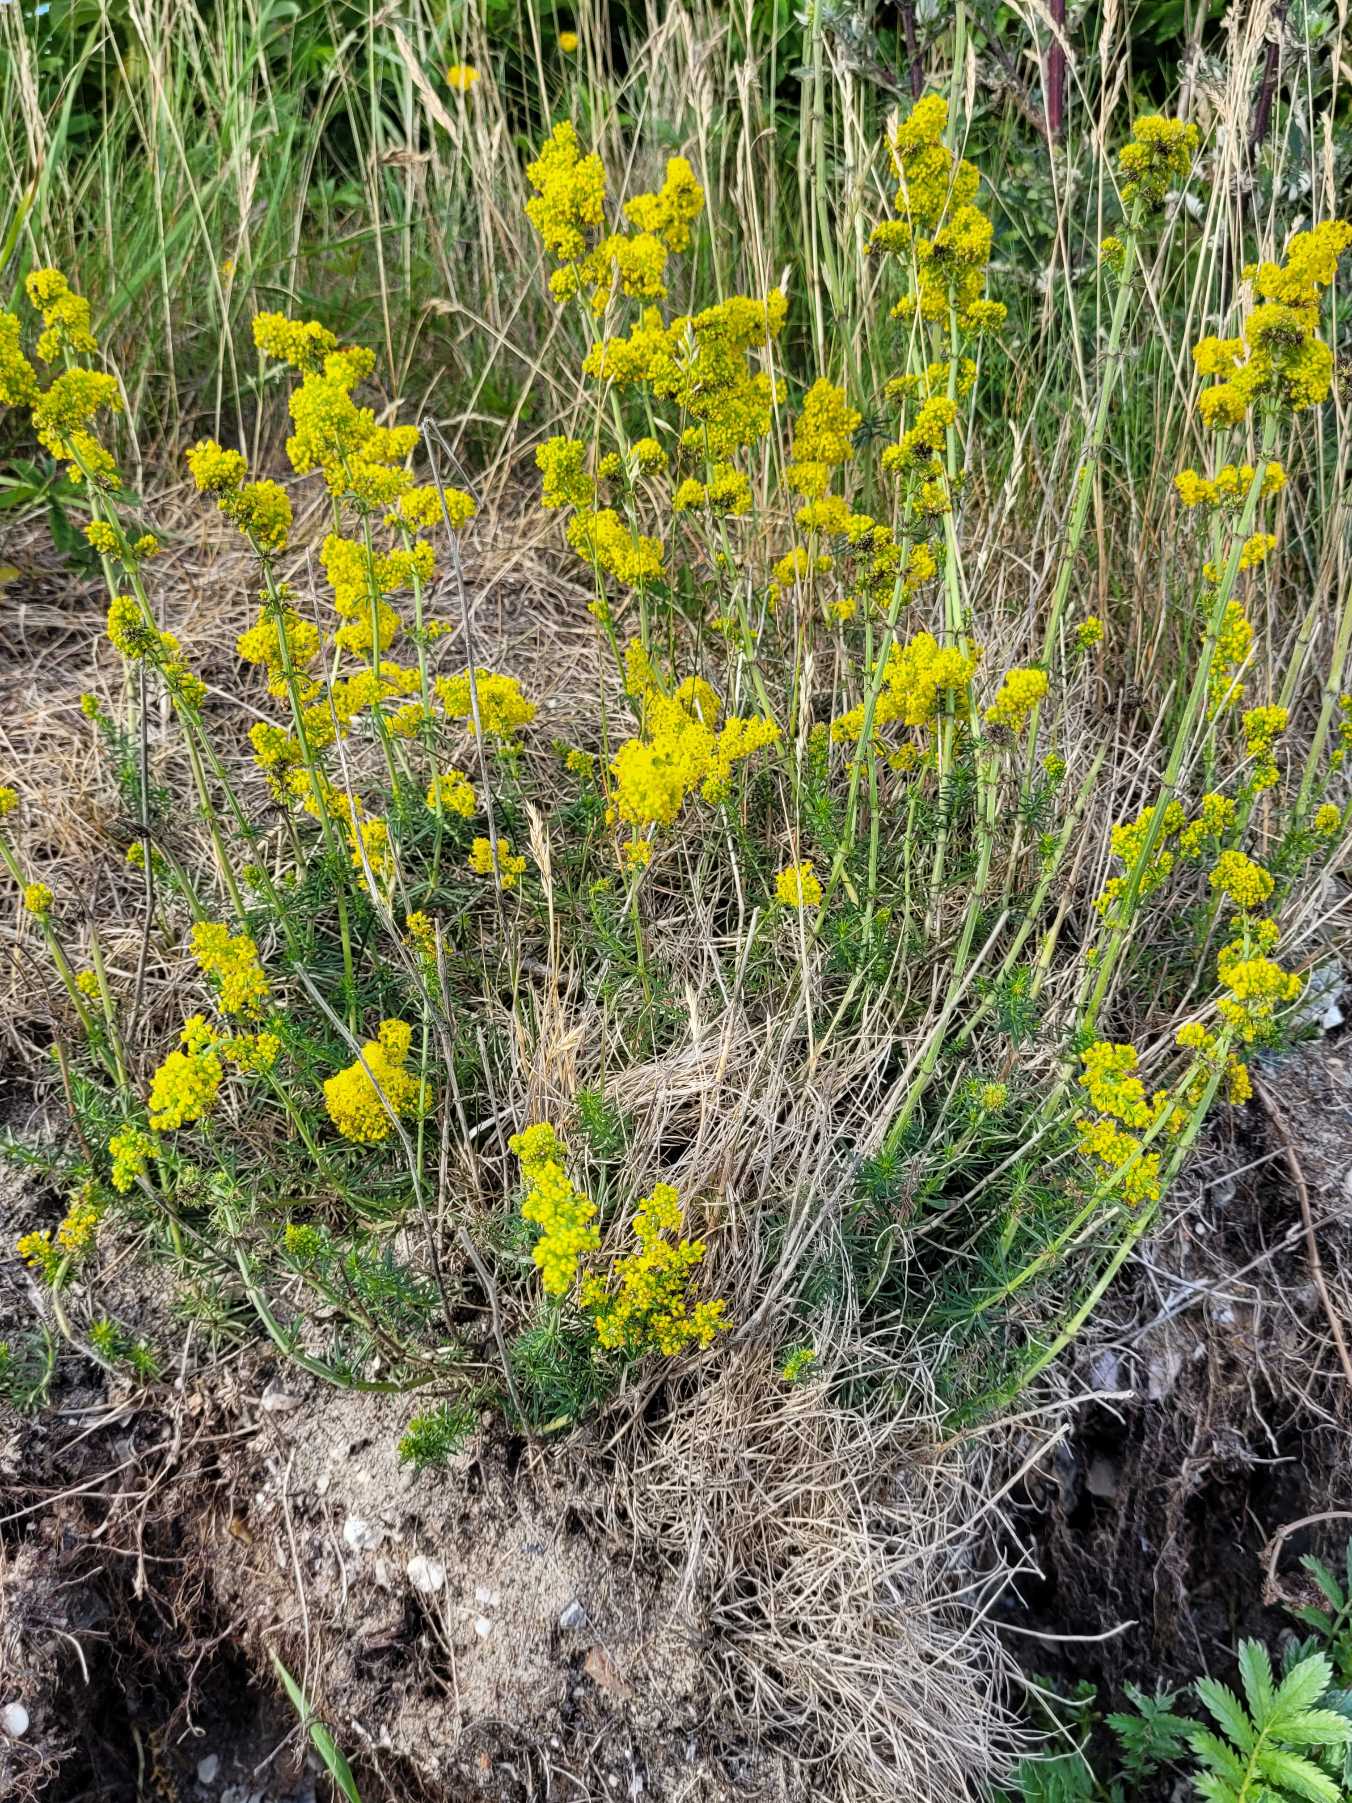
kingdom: Plantae
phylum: Tracheophyta
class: Magnoliopsida
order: Gentianales
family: Rubiaceae
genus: Galium
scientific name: Galium verum
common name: Gul snerre
